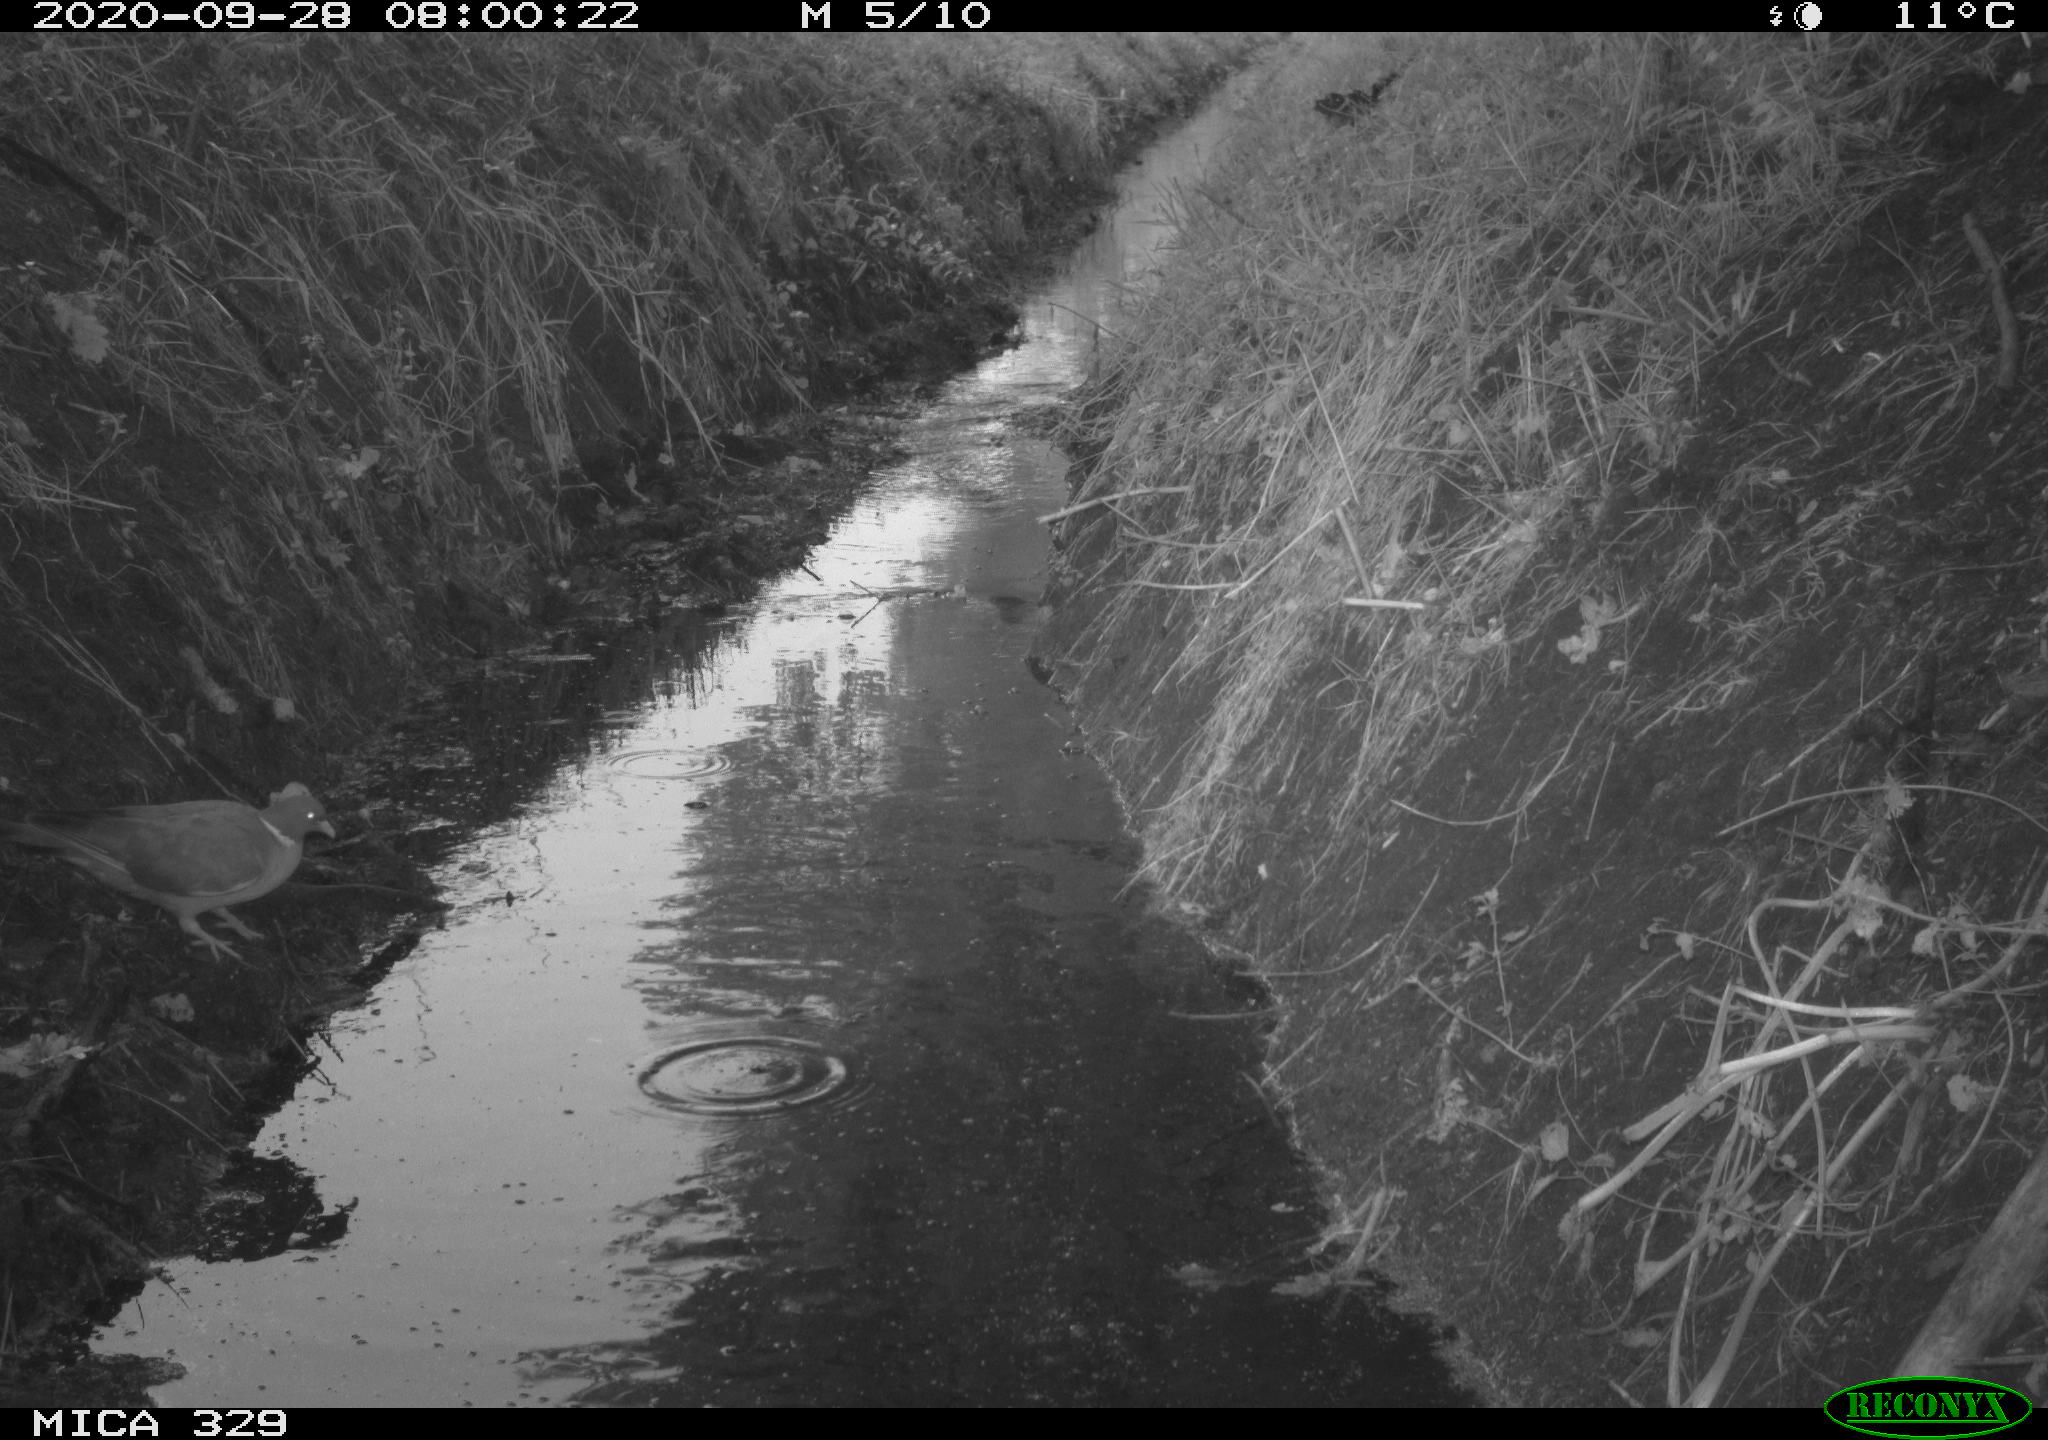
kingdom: Animalia
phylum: Chordata
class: Aves
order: Columbiformes
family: Columbidae
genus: Columba
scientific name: Columba palumbus
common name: Common wood pigeon
